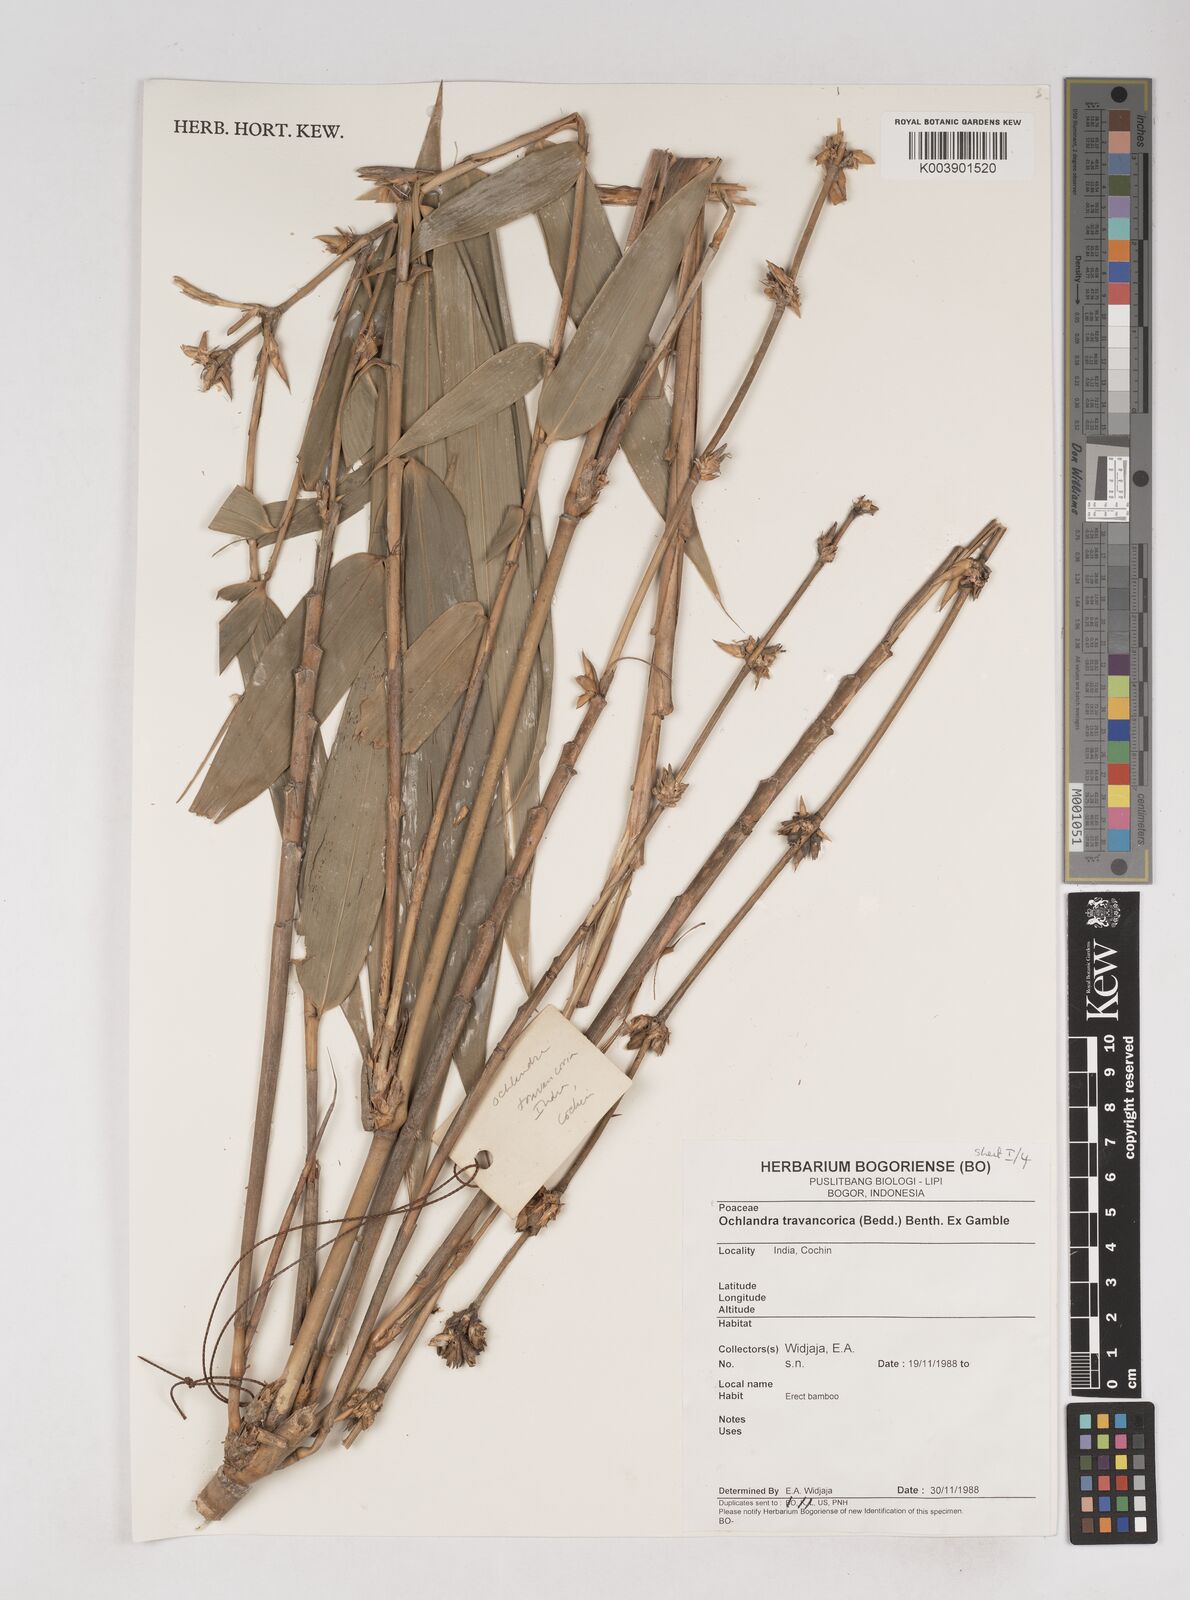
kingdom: Plantae
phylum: Tracheophyta
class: Liliopsida
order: Poales
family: Poaceae
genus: Ochlandra
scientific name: Ochlandra travancorica
